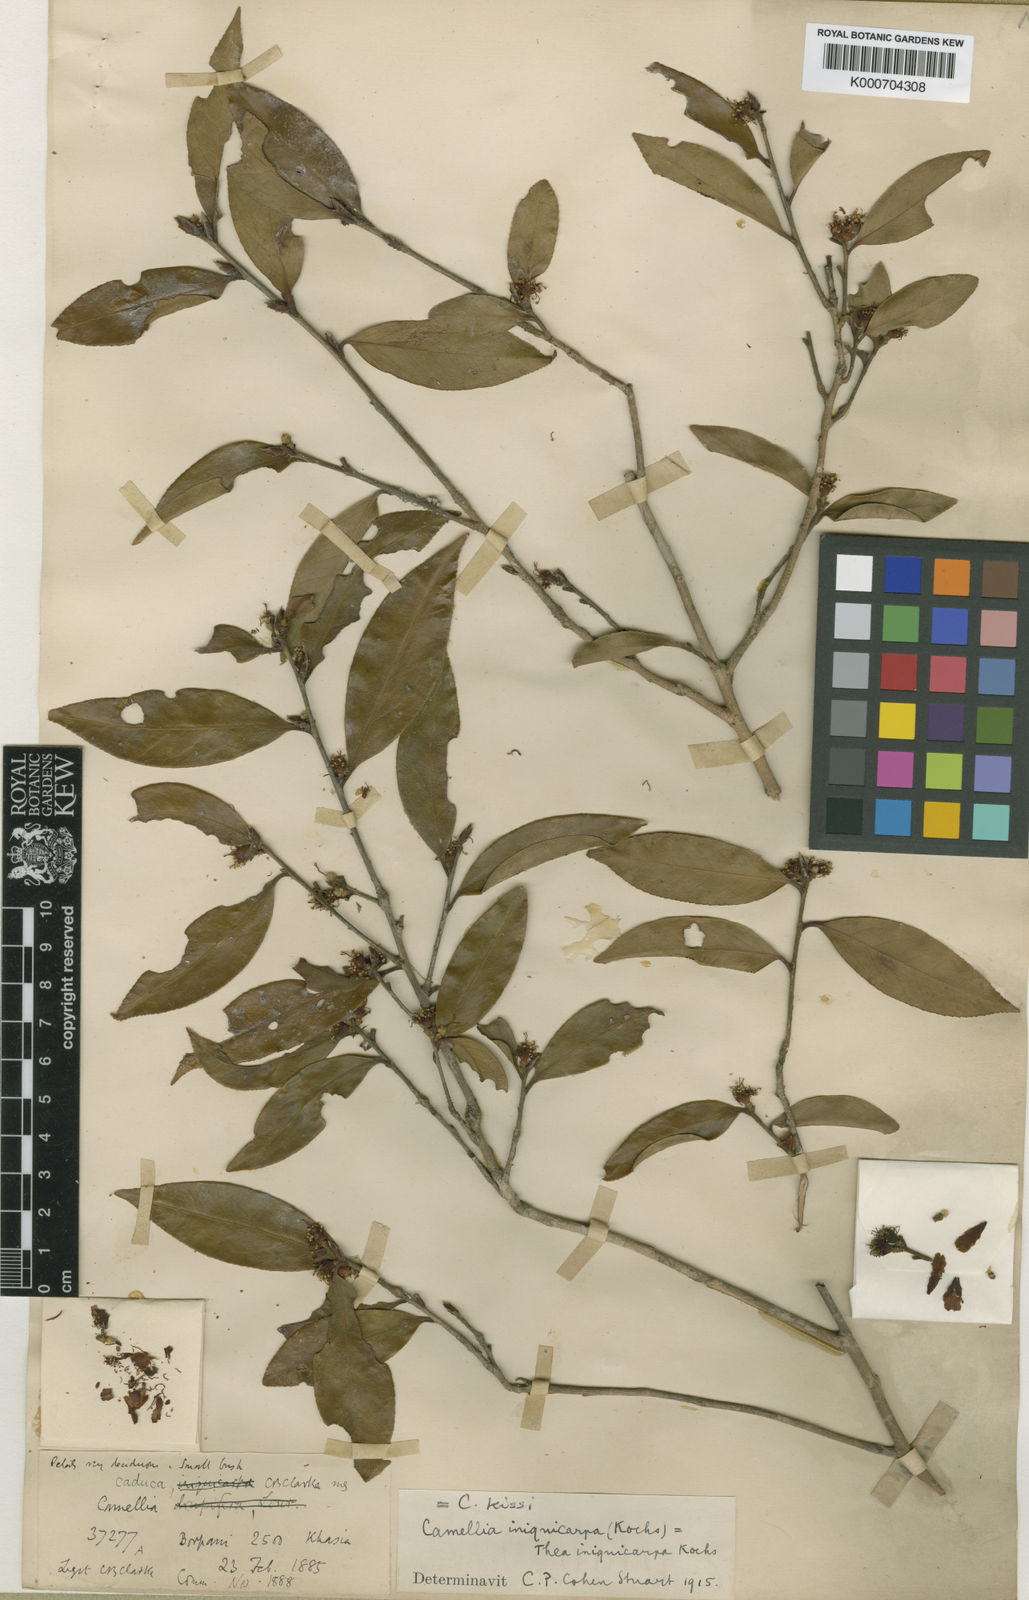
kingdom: Plantae
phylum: Tracheophyta
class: Magnoliopsida
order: Ericales
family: Theaceae
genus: Camellia
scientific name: Camellia
